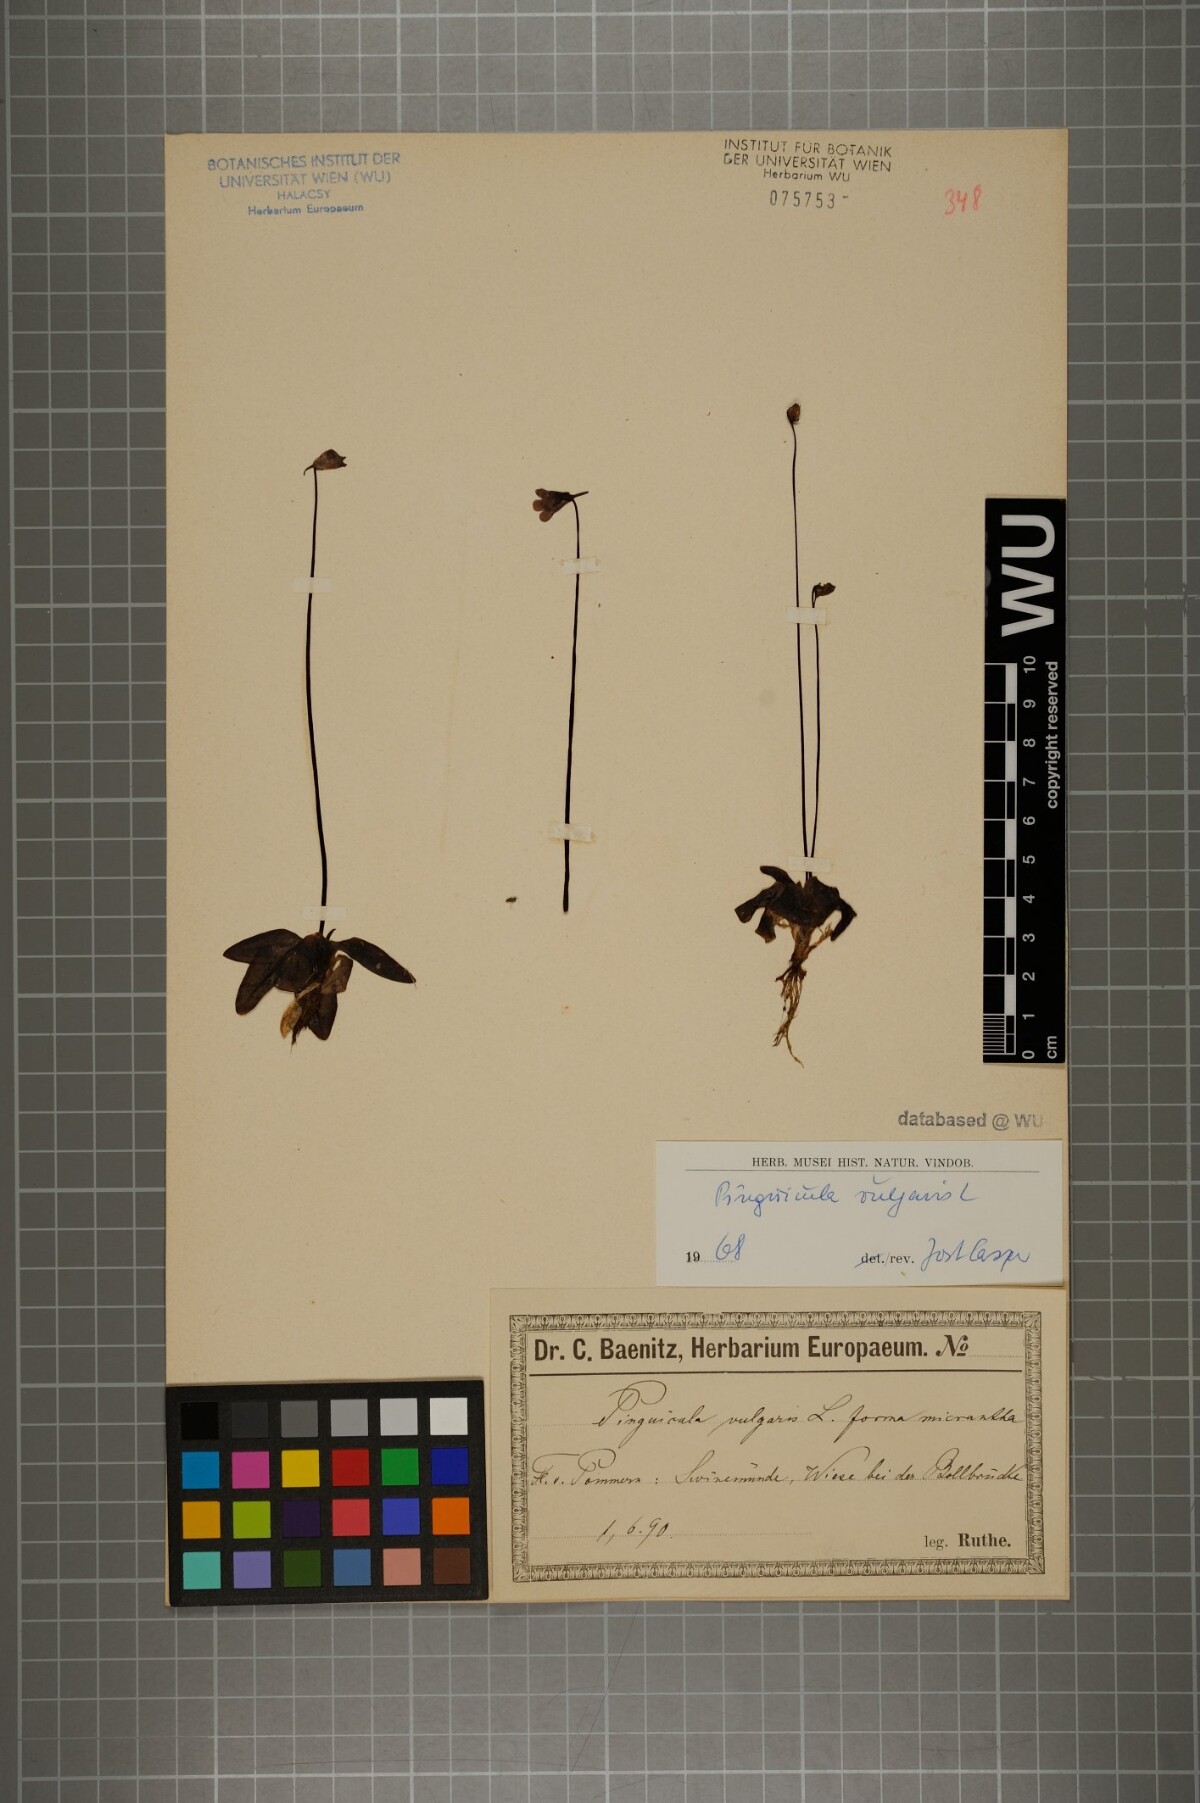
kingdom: Plantae
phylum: Tracheophyta
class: Magnoliopsida
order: Lamiales
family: Lentibulariaceae
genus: Pinguicula
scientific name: Pinguicula vulgaris
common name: Common butterwort
